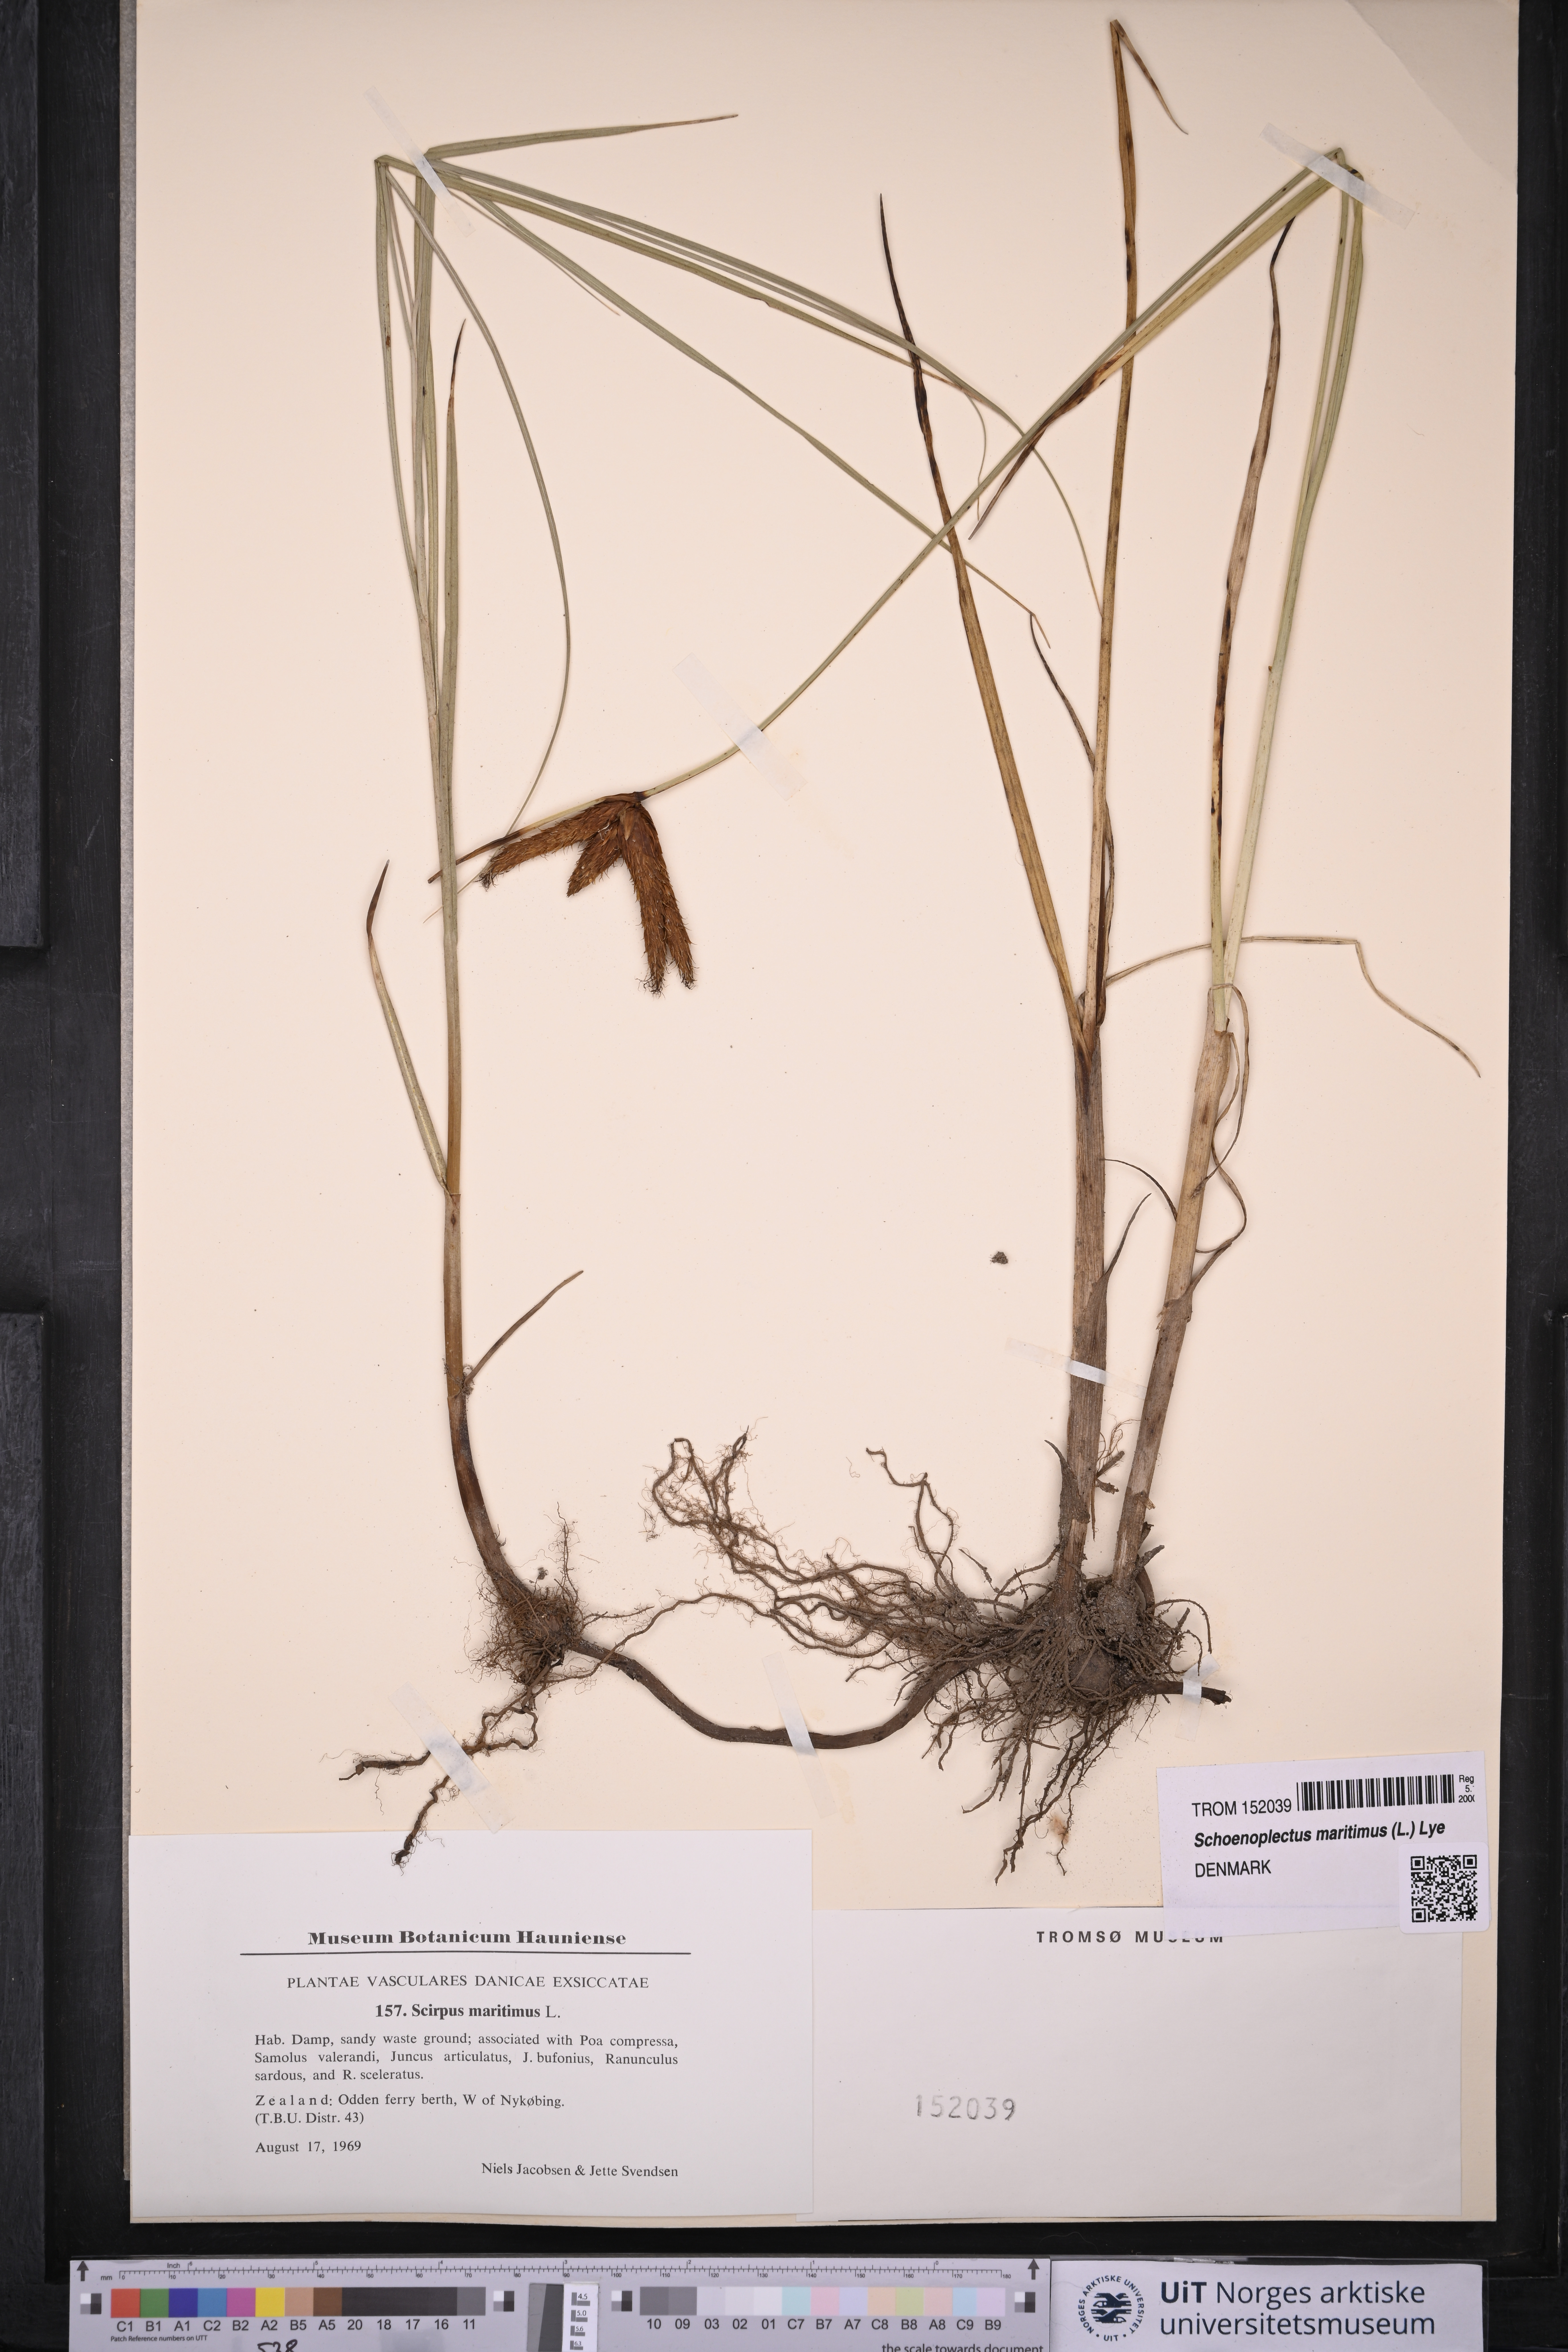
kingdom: Plantae
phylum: Tracheophyta
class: Liliopsida
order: Poales
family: Cyperaceae
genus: Bolboschoenus
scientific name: Bolboschoenus maritimus
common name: Sea club-rush
